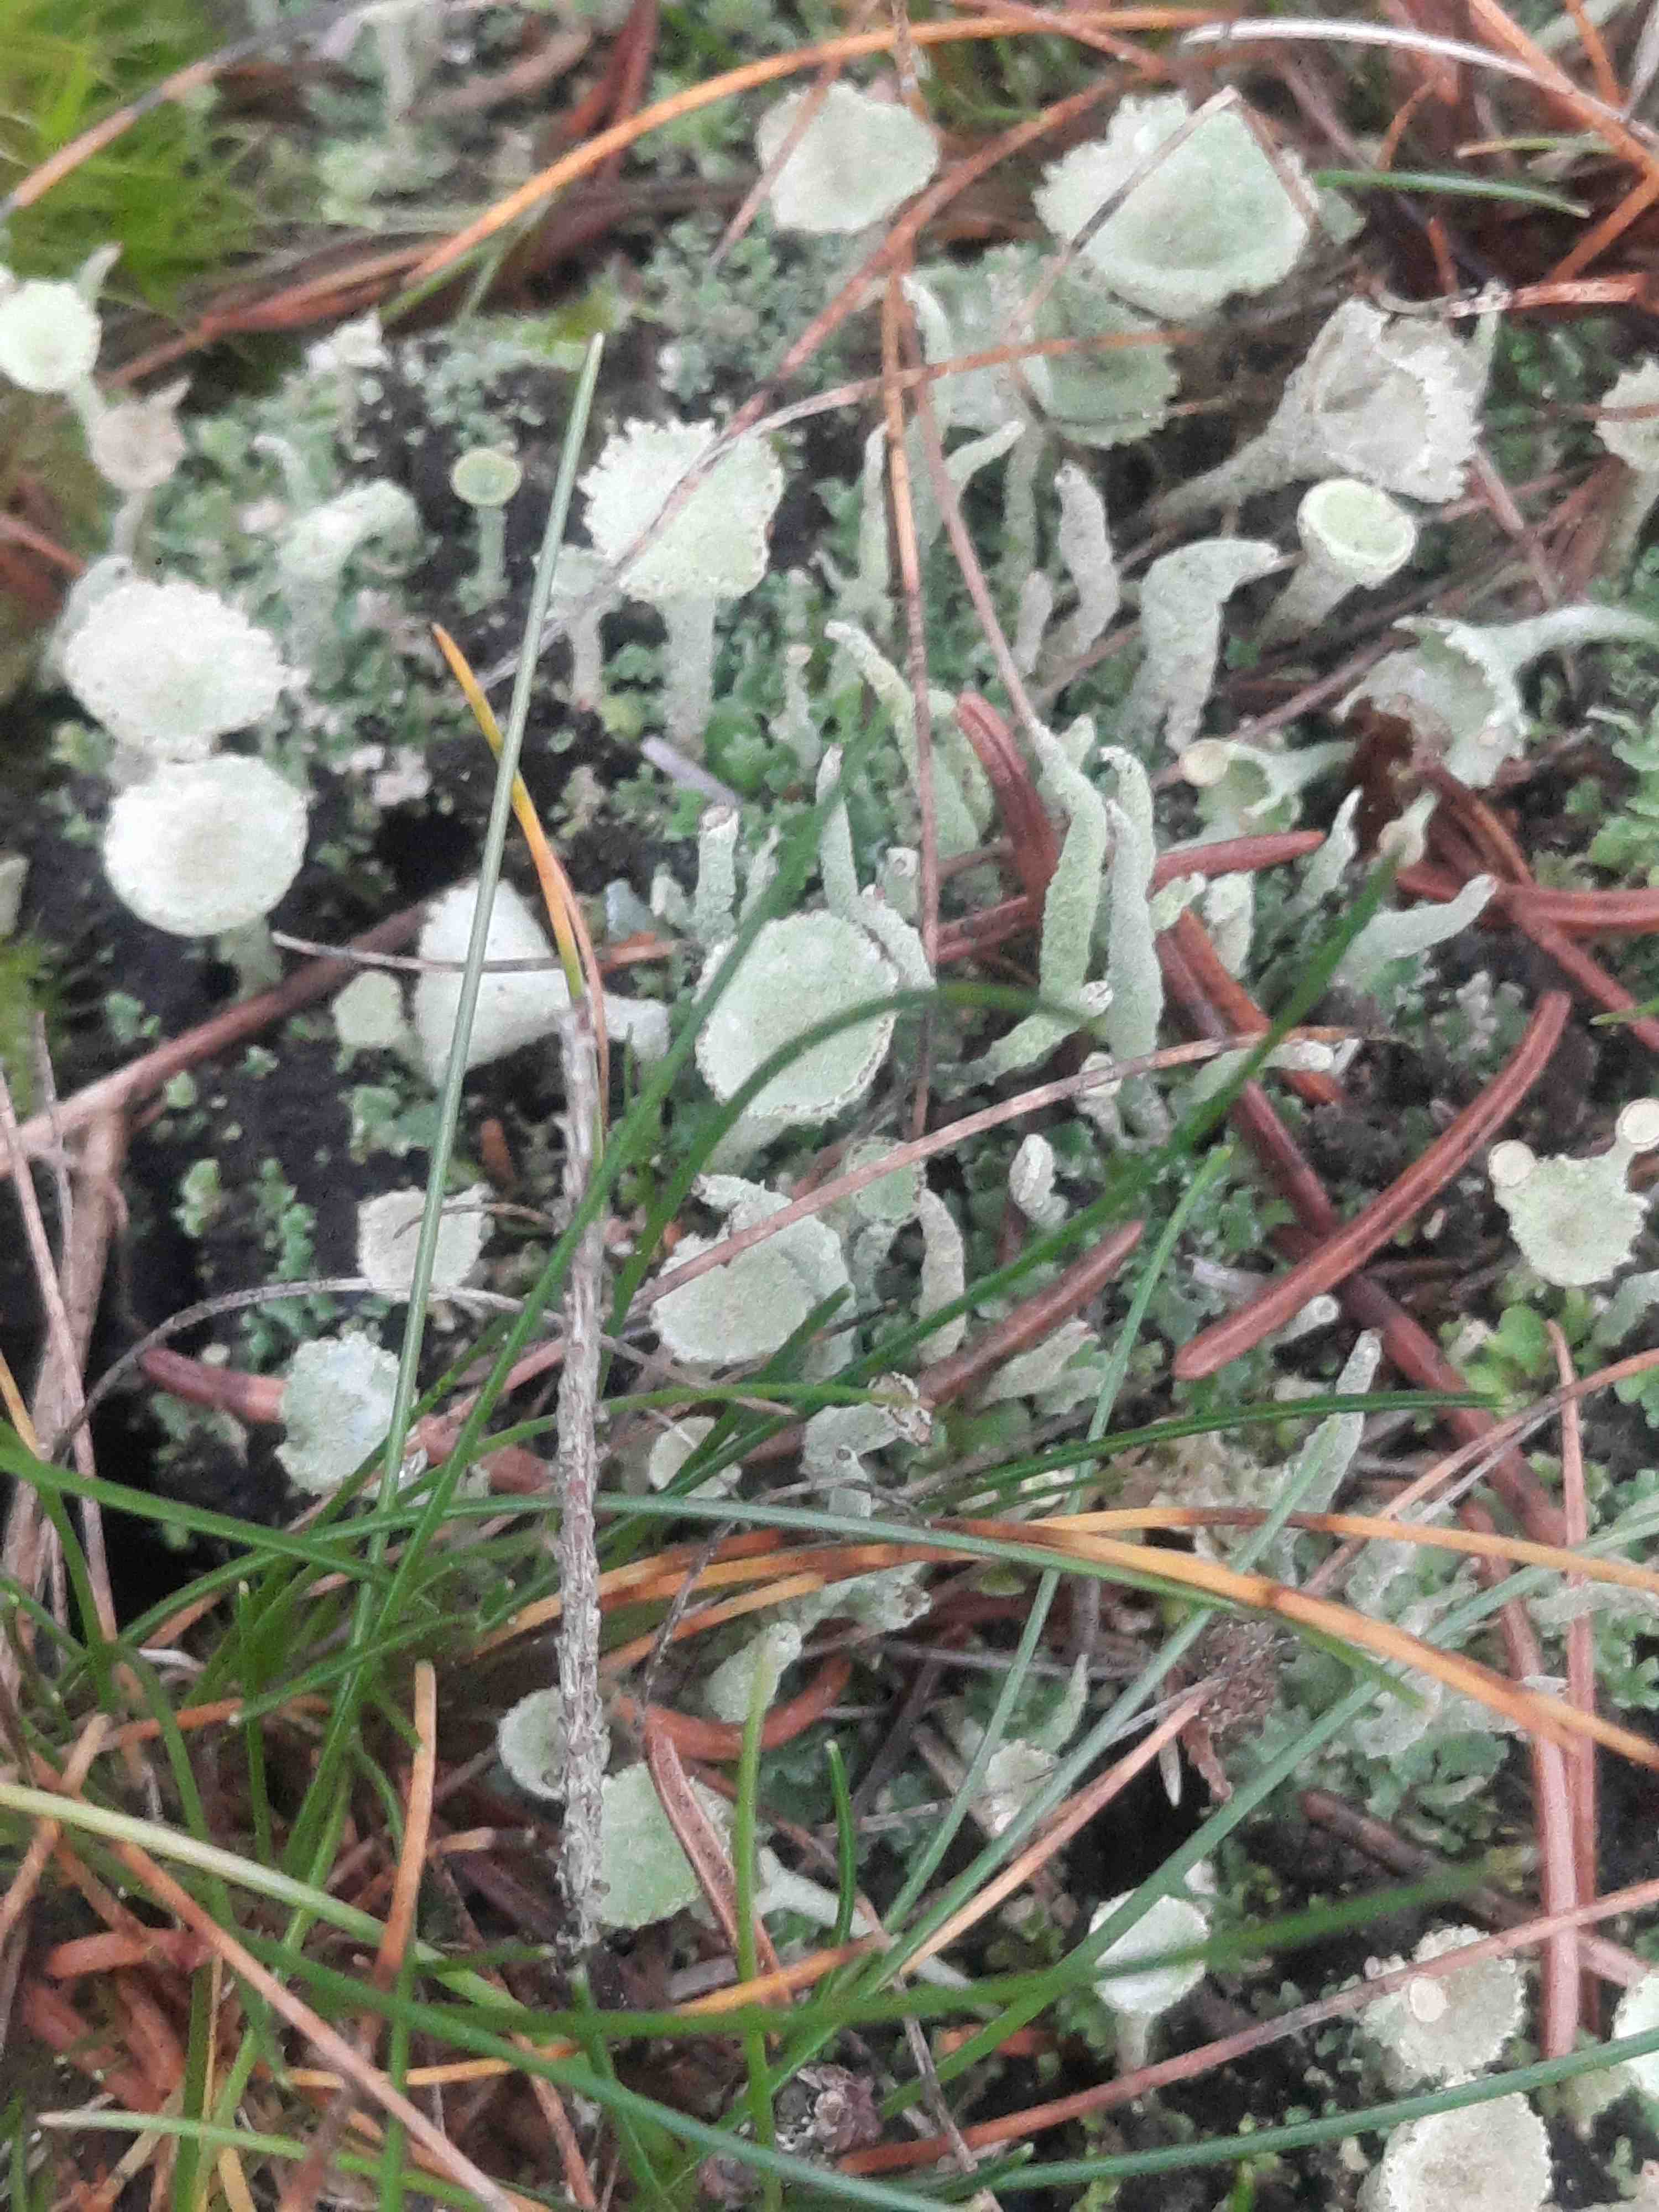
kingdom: Fungi
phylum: Ascomycota
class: Lecanoromycetes
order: Lecanorales
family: Cladoniaceae
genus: Cladonia
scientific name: Cladonia
